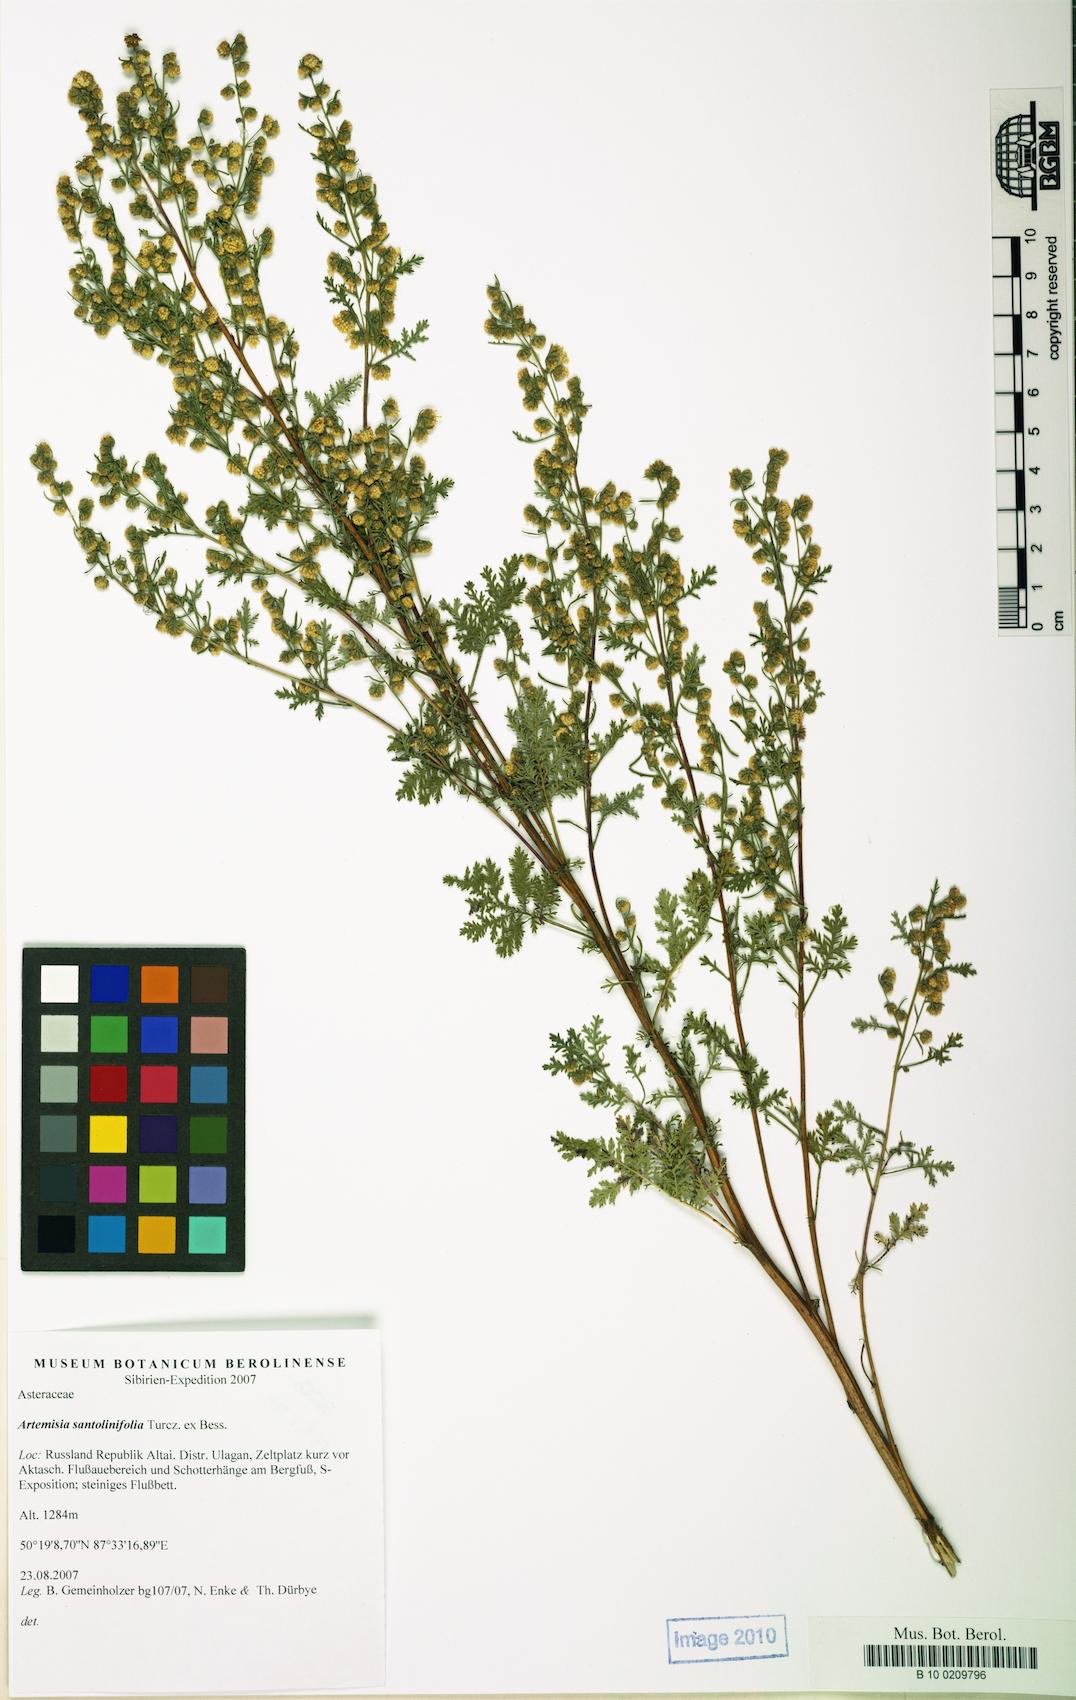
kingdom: Plantae
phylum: Tracheophyta
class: Magnoliopsida
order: Asterales
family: Asteraceae
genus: Artemisia
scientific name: Artemisia gmelinii
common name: Gmelin's wormwood
